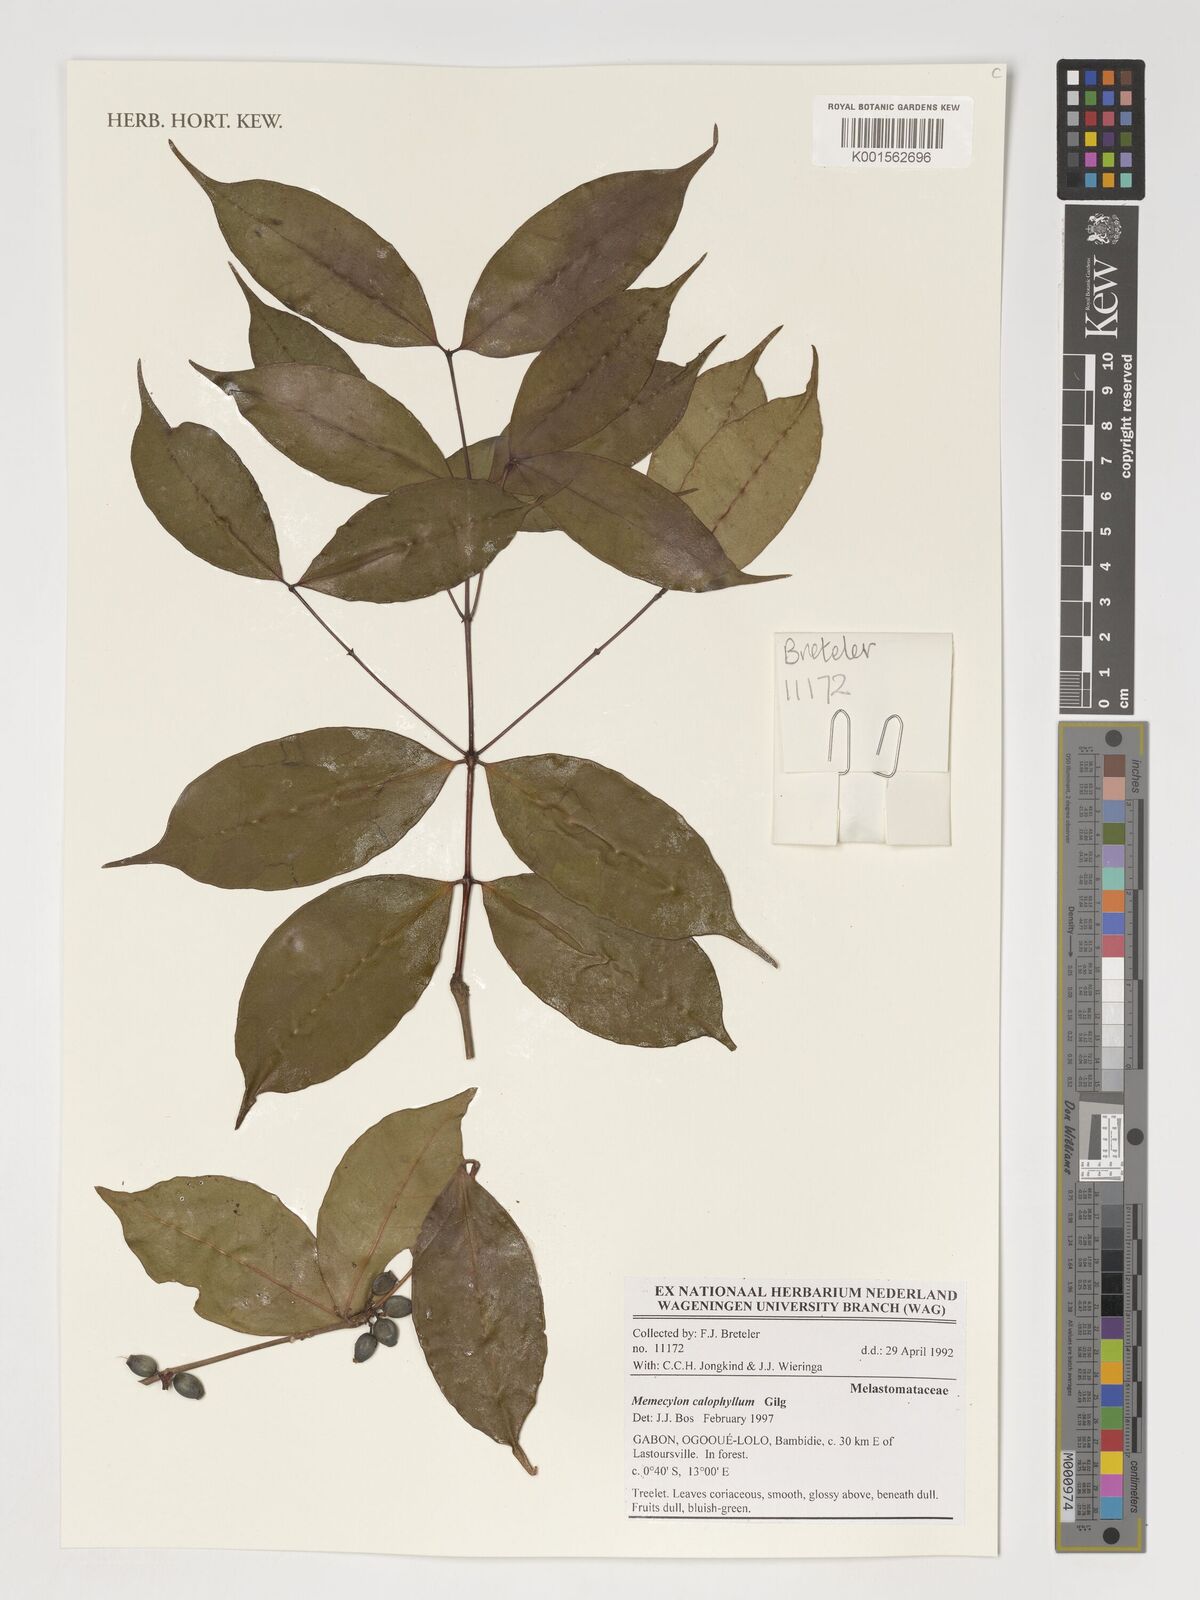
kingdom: Plantae
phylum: Tracheophyta
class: Magnoliopsida
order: Myrtales
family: Melastomataceae
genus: Memecylon
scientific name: Memecylon calophyllum
